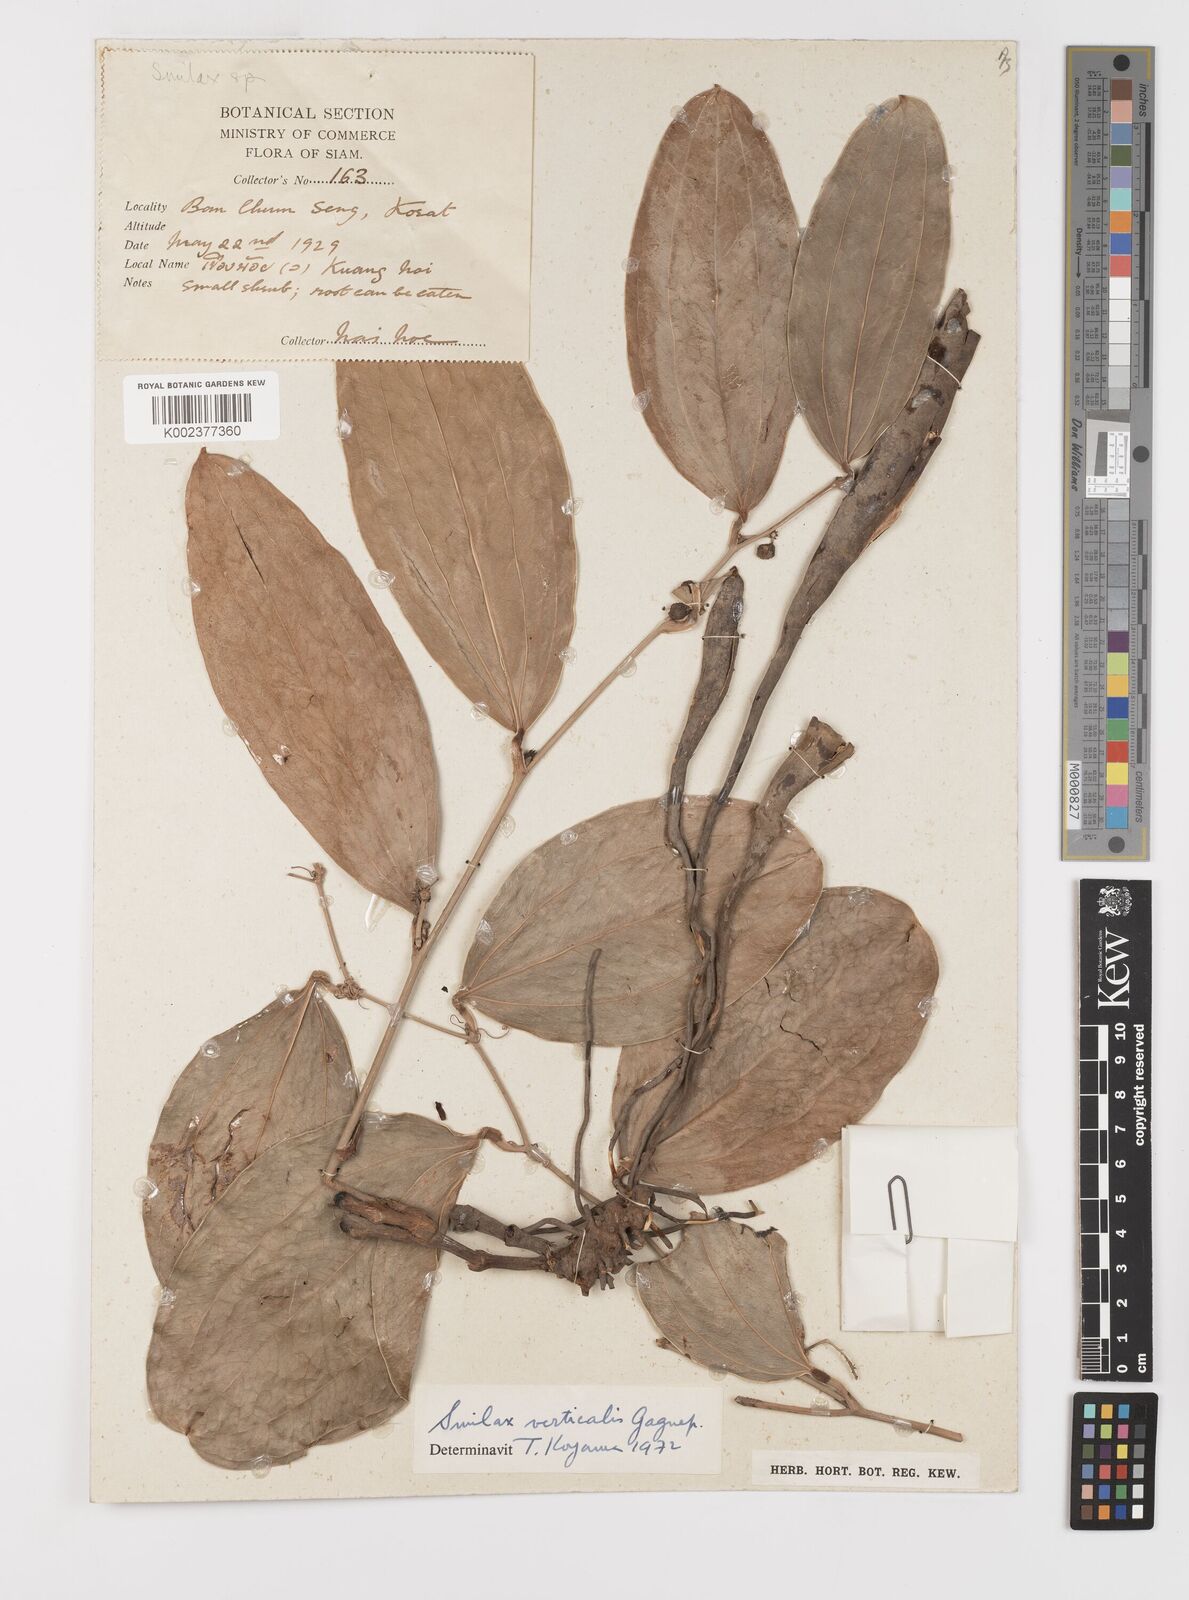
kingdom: Plantae
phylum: Tracheophyta
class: Liliopsida
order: Liliales
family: Smilacaceae
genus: Smilax
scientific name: Smilax verticalis
